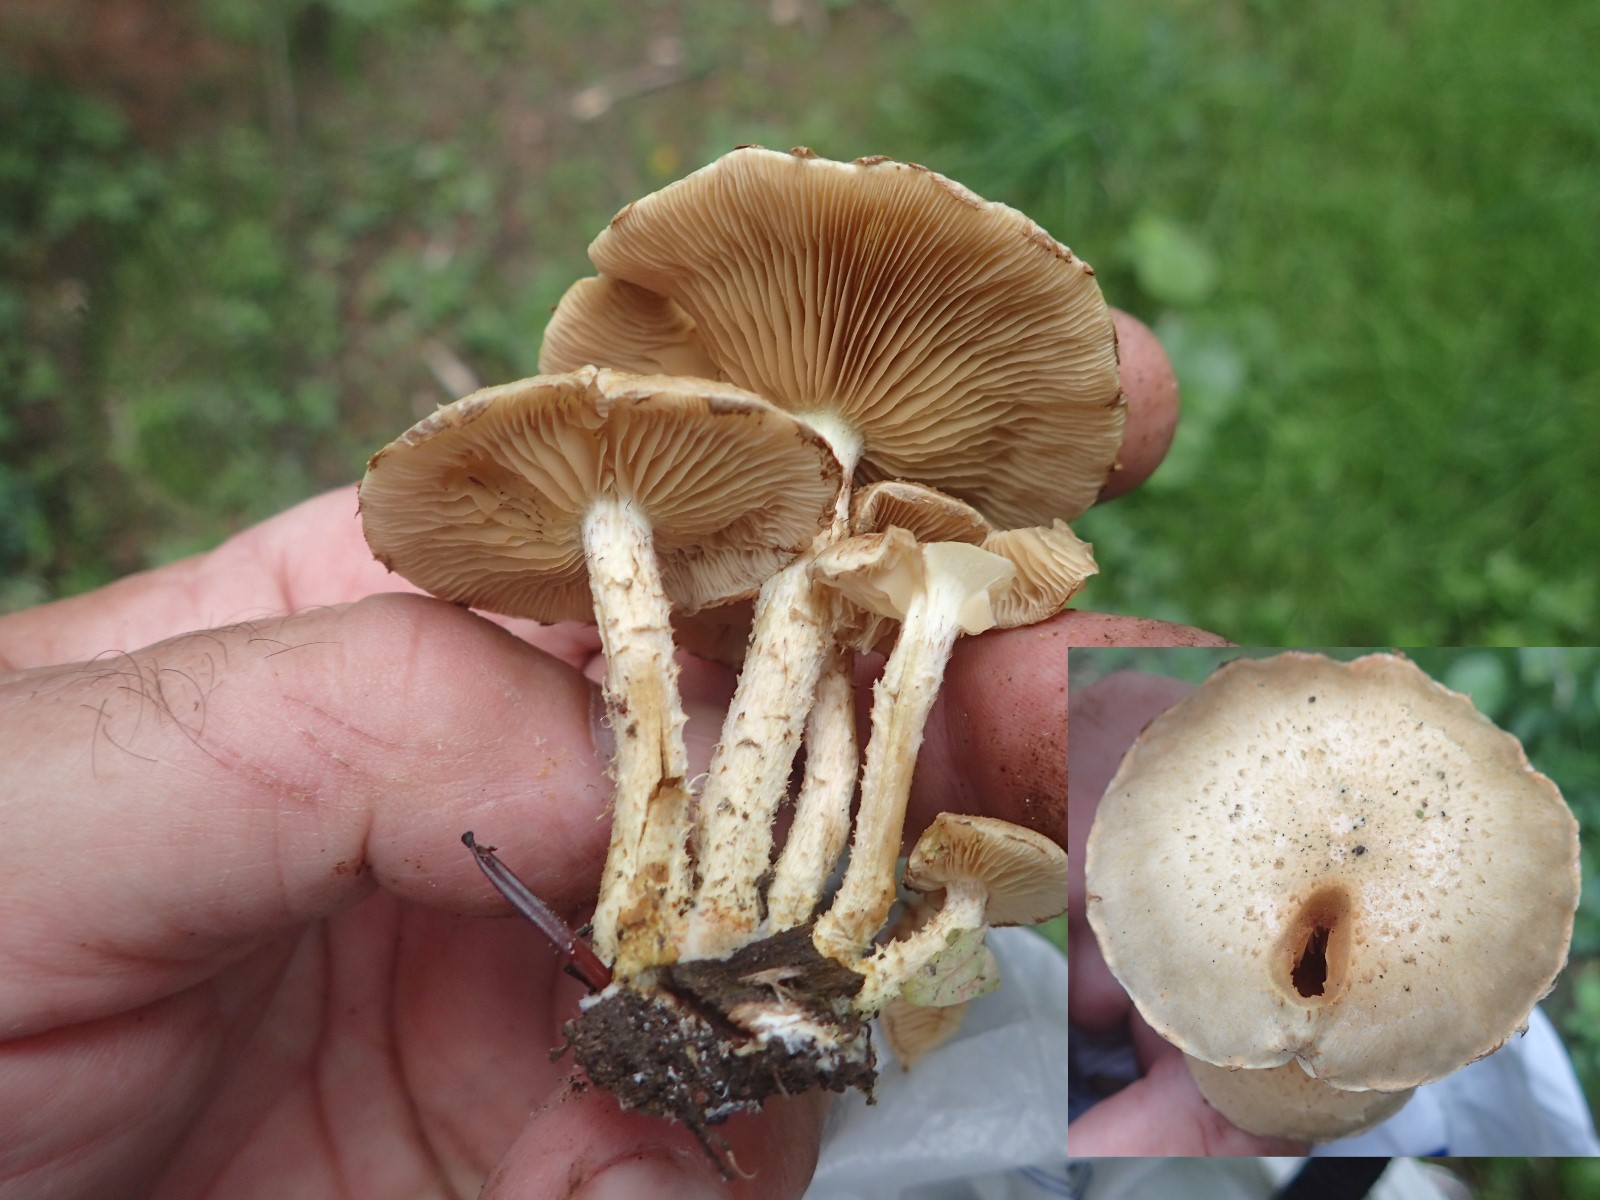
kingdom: Fungi
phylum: Basidiomycota
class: Agaricomycetes
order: Agaricales
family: Strophariaceae
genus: Pholiota
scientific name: Pholiota gummosa
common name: grøngul skælhat
